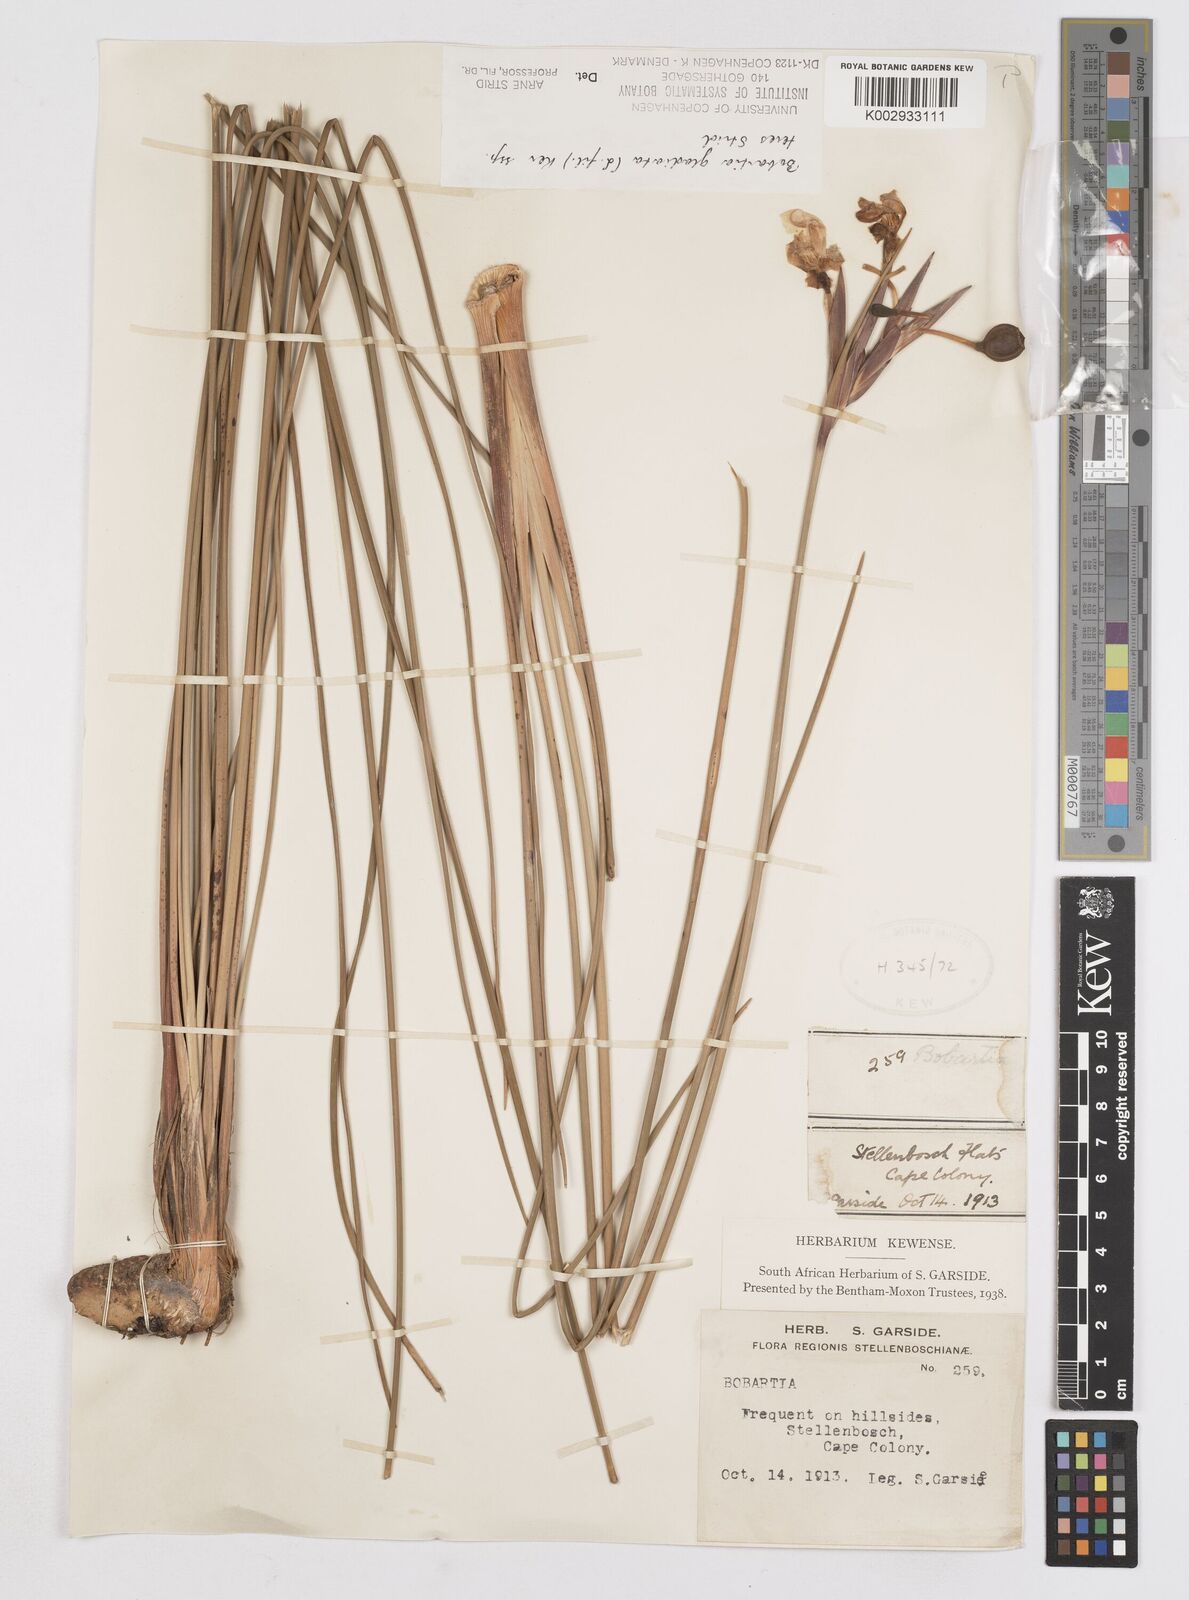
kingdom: Plantae
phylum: Tracheophyta
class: Liliopsida
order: Asparagales
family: Iridaceae
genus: Bobartia
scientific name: Bobartia gladiata
